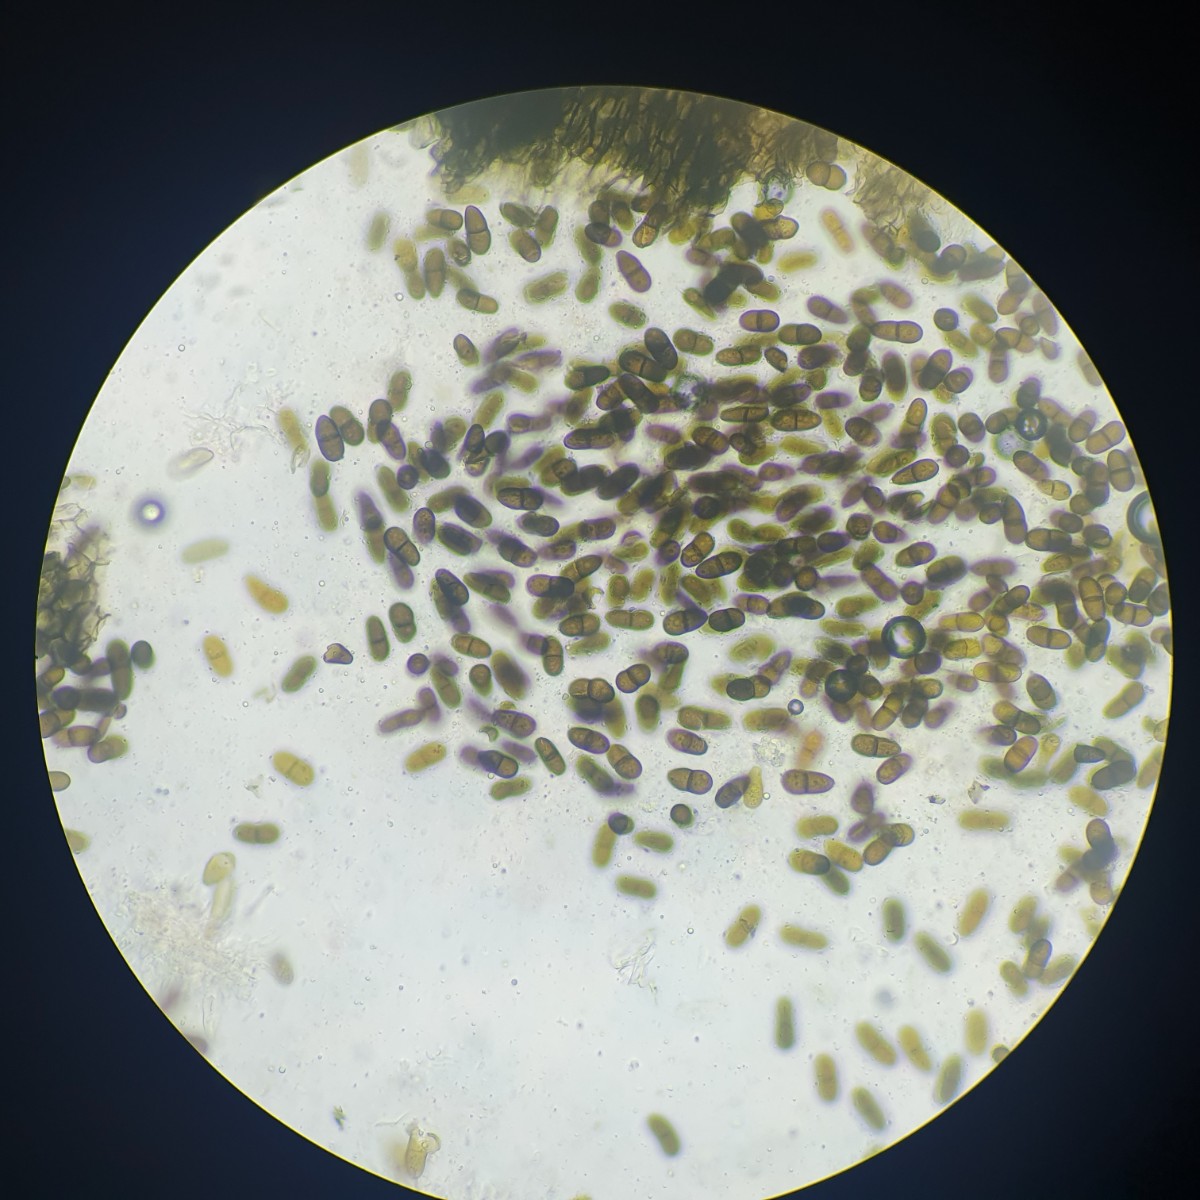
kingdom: Fungi
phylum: Ascomycota
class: Dothideomycetes
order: Botryosphaeriales
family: Botryosphaeriaceae
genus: Diplodia
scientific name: Diplodia
